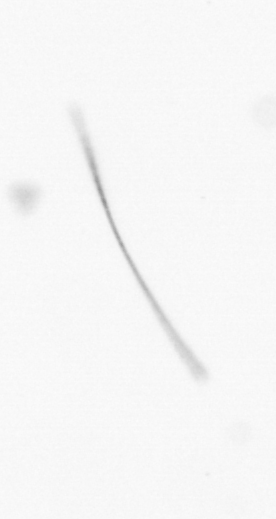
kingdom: Chromista
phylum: Ochrophyta
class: Bacillariophyceae
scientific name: Bacillariophyceae
